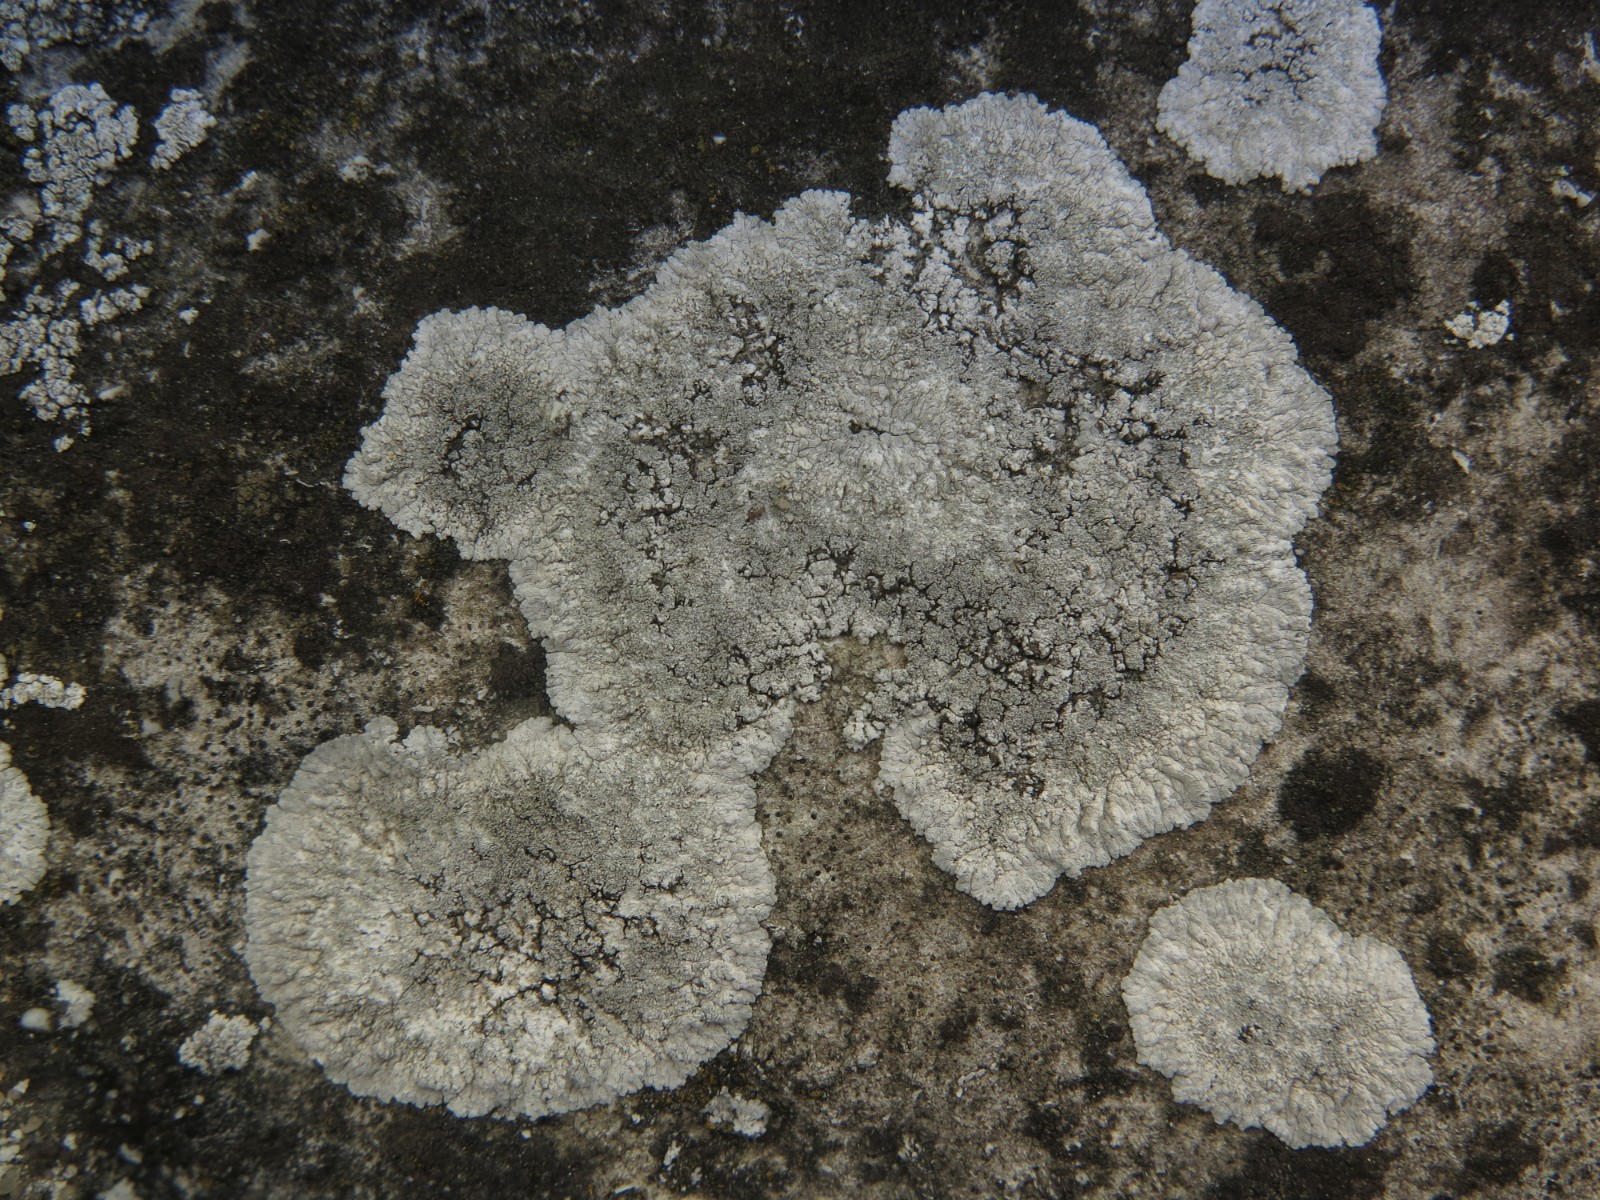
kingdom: Fungi
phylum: Ascomycota
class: Lecanoromycetes
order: Teloschistales
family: Teloschistaceae
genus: Kuettlingeria
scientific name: Kuettlingeria teicholyta
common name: grå orangelav
